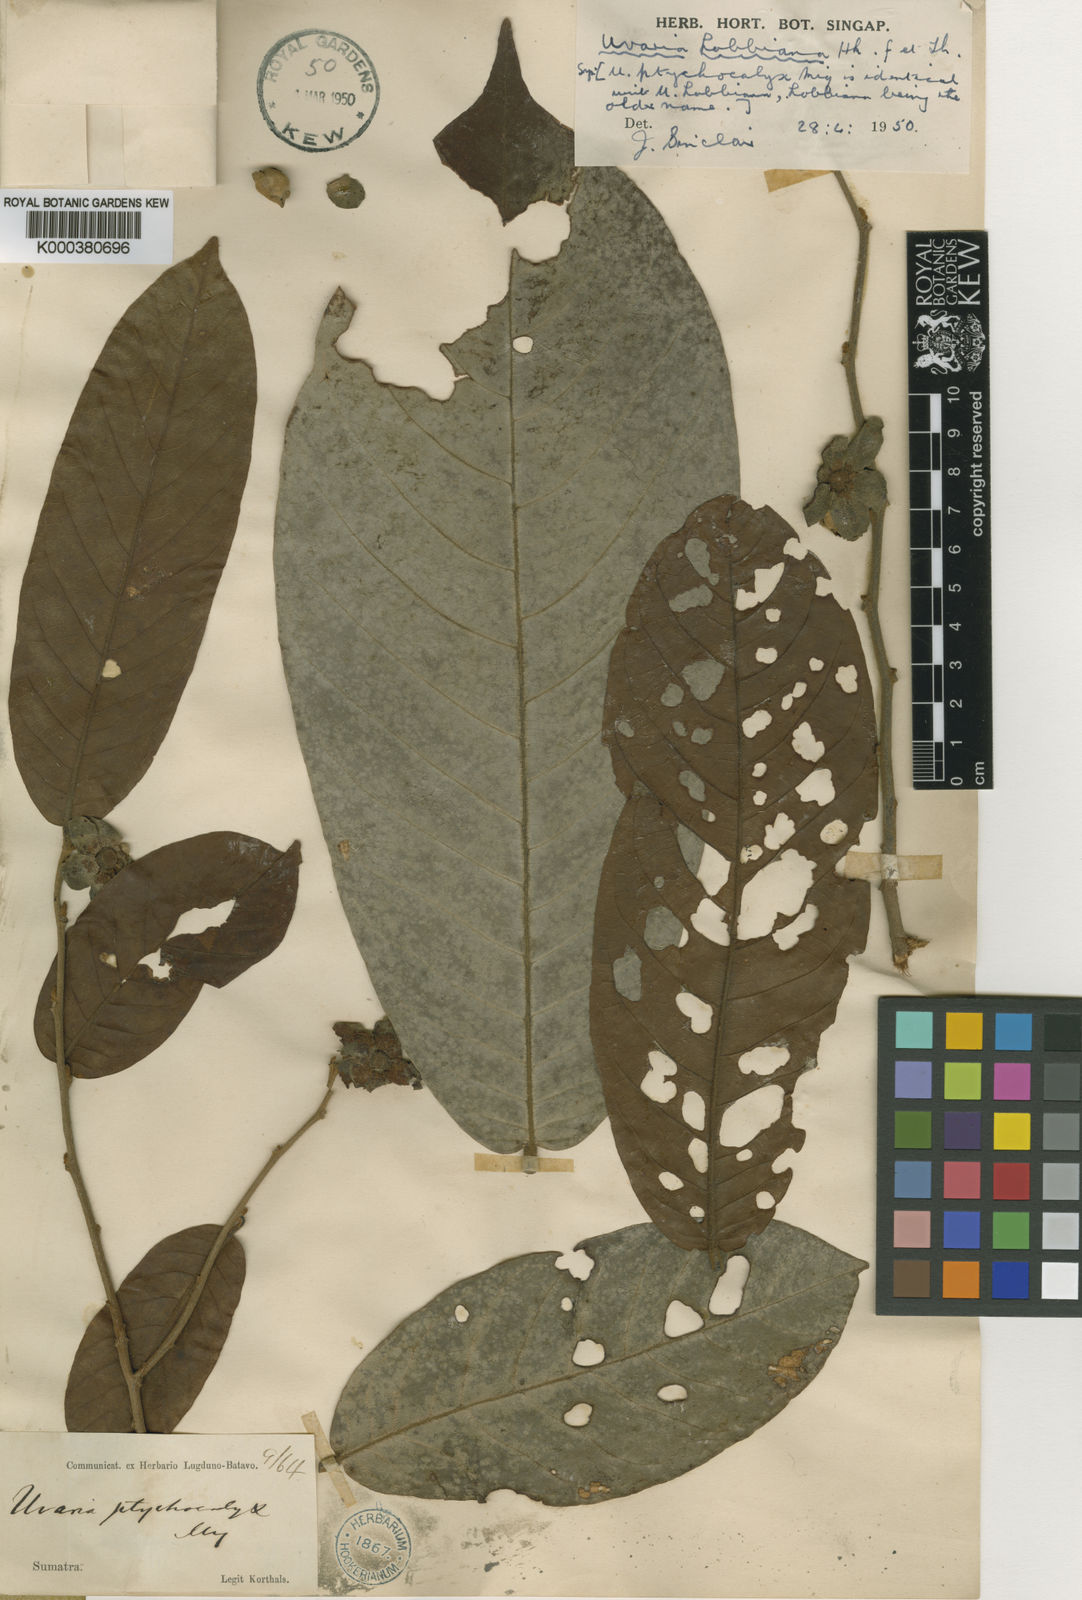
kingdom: Plantae
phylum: Tracheophyta
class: Magnoliopsida
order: Magnoliales
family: Annonaceae
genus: Uvaria
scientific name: Uvaria lobbiana
